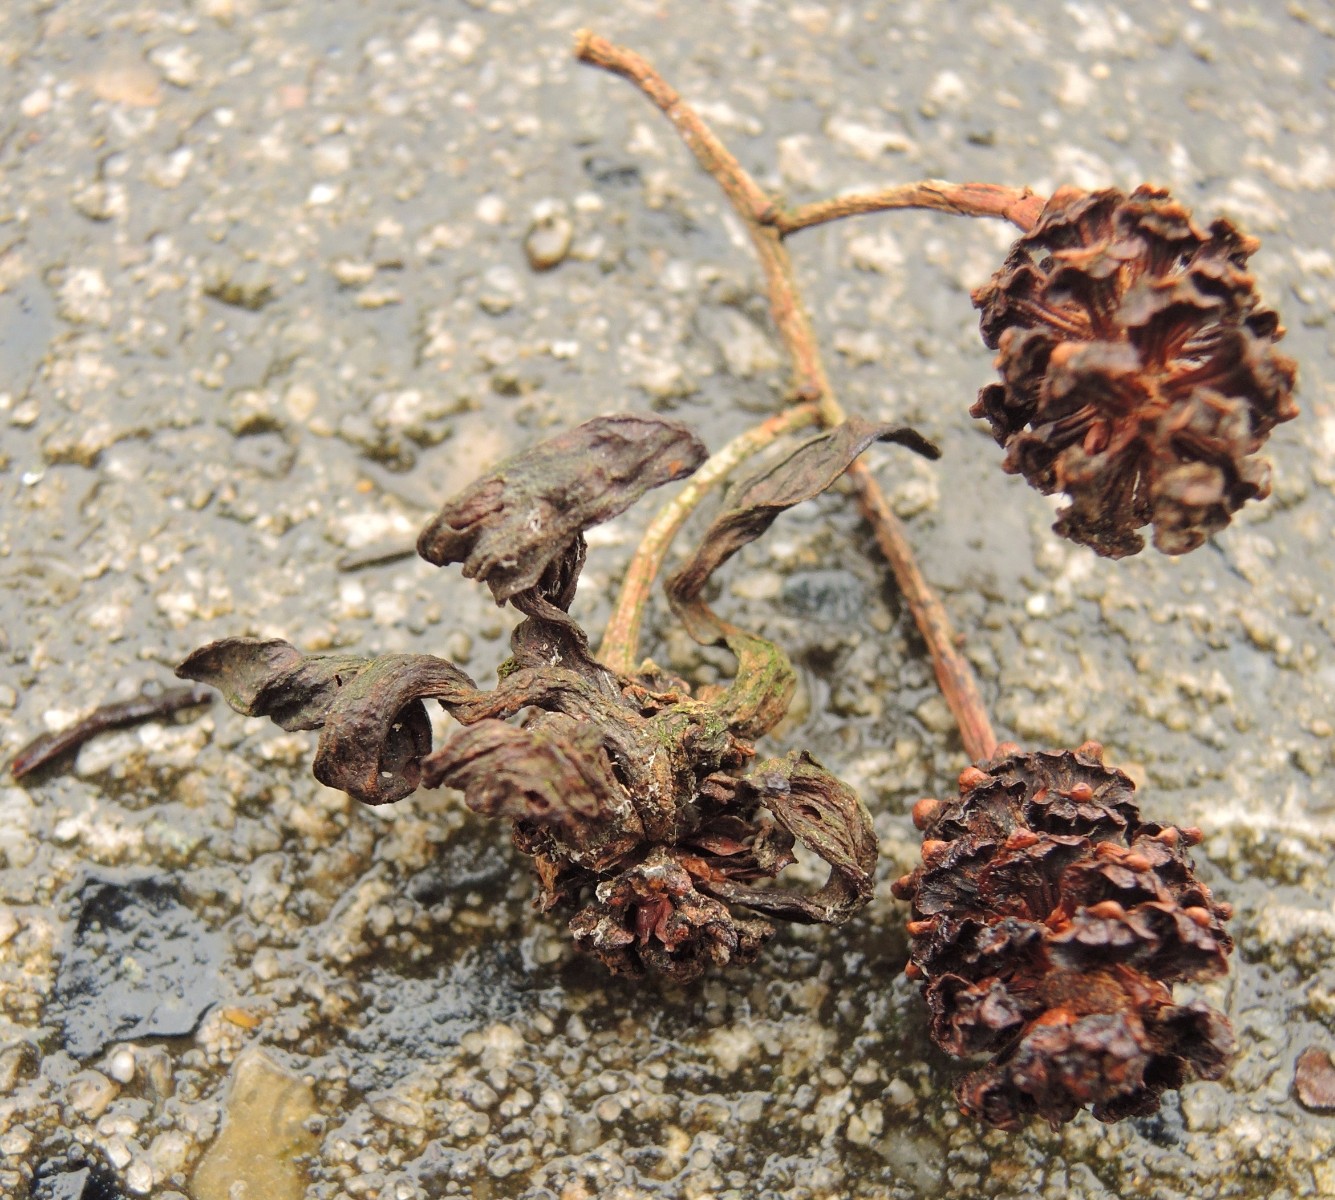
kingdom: Fungi
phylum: Ascomycota
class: Taphrinomycetes
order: Taphrinales
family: Taphrinaceae
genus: Taphrina
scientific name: Taphrina alni
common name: Alder tongue
